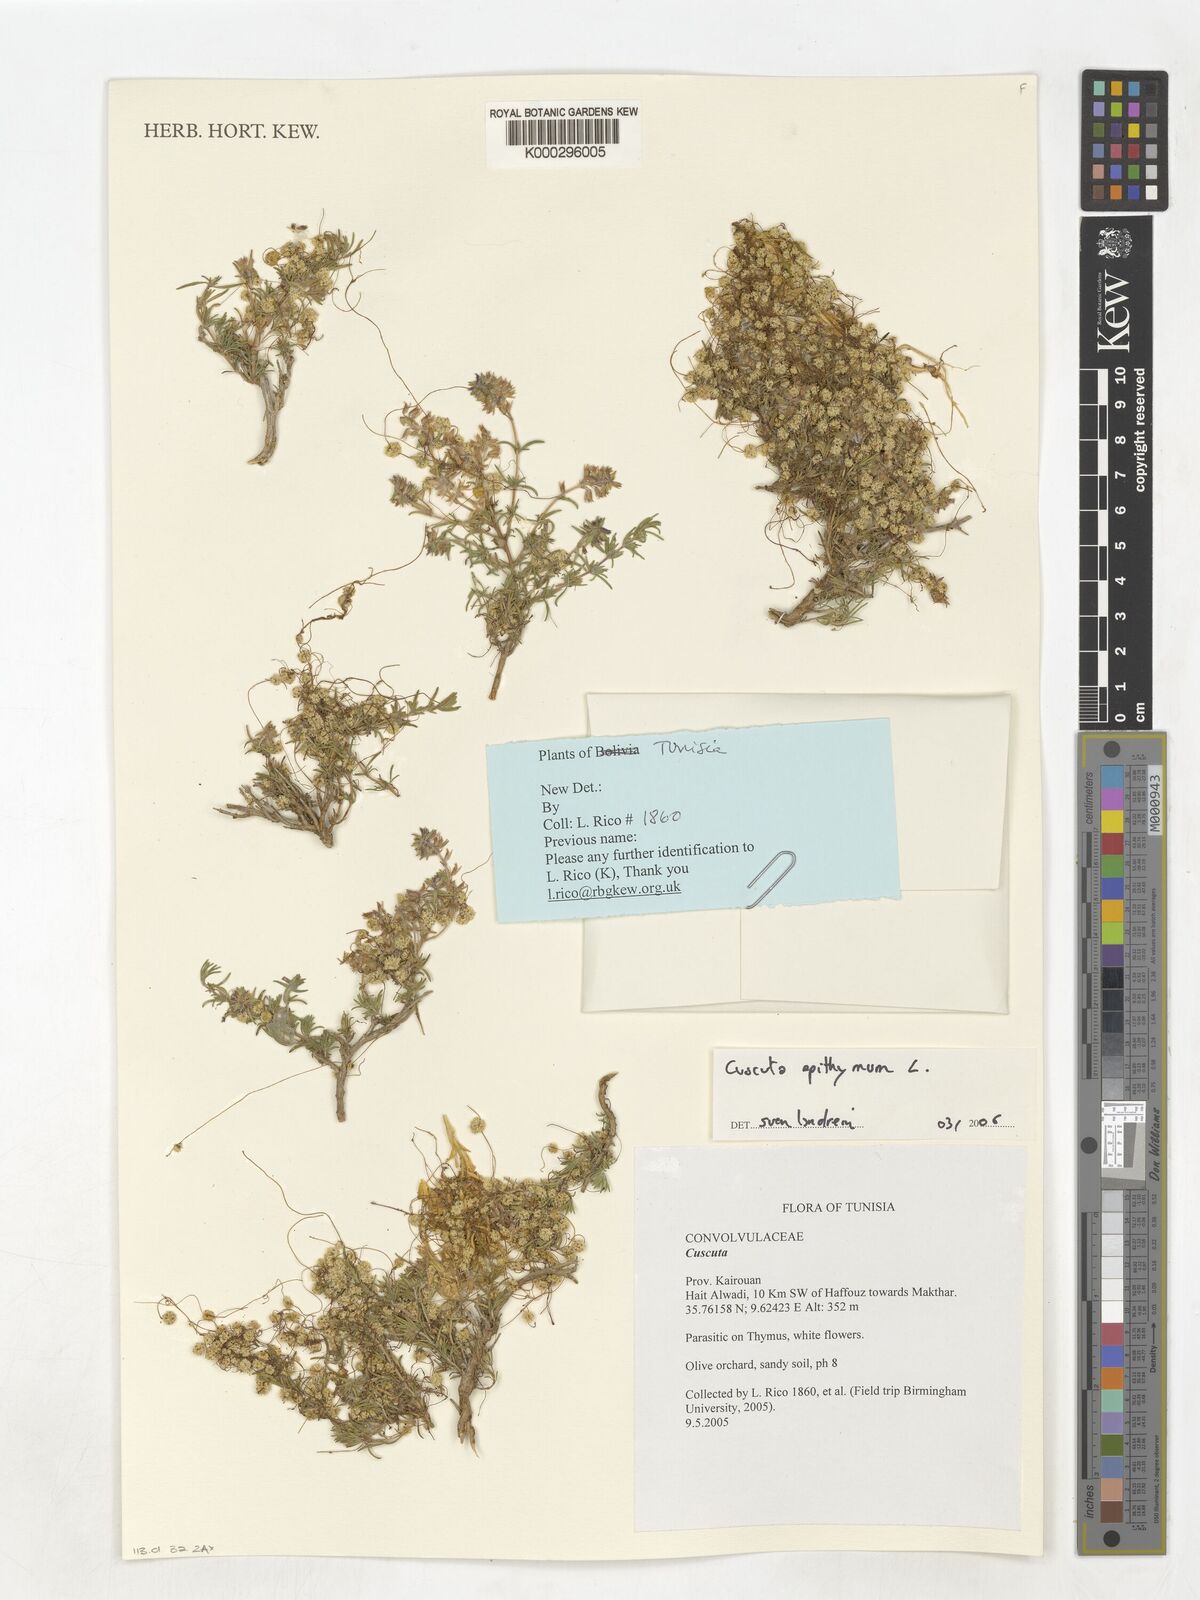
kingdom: Plantae
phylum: Tracheophyta
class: Magnoliopsida
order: Solanales
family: Convolvulaceae
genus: Cuscuta
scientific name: Cuscuta epithymum
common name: Clover dodder
